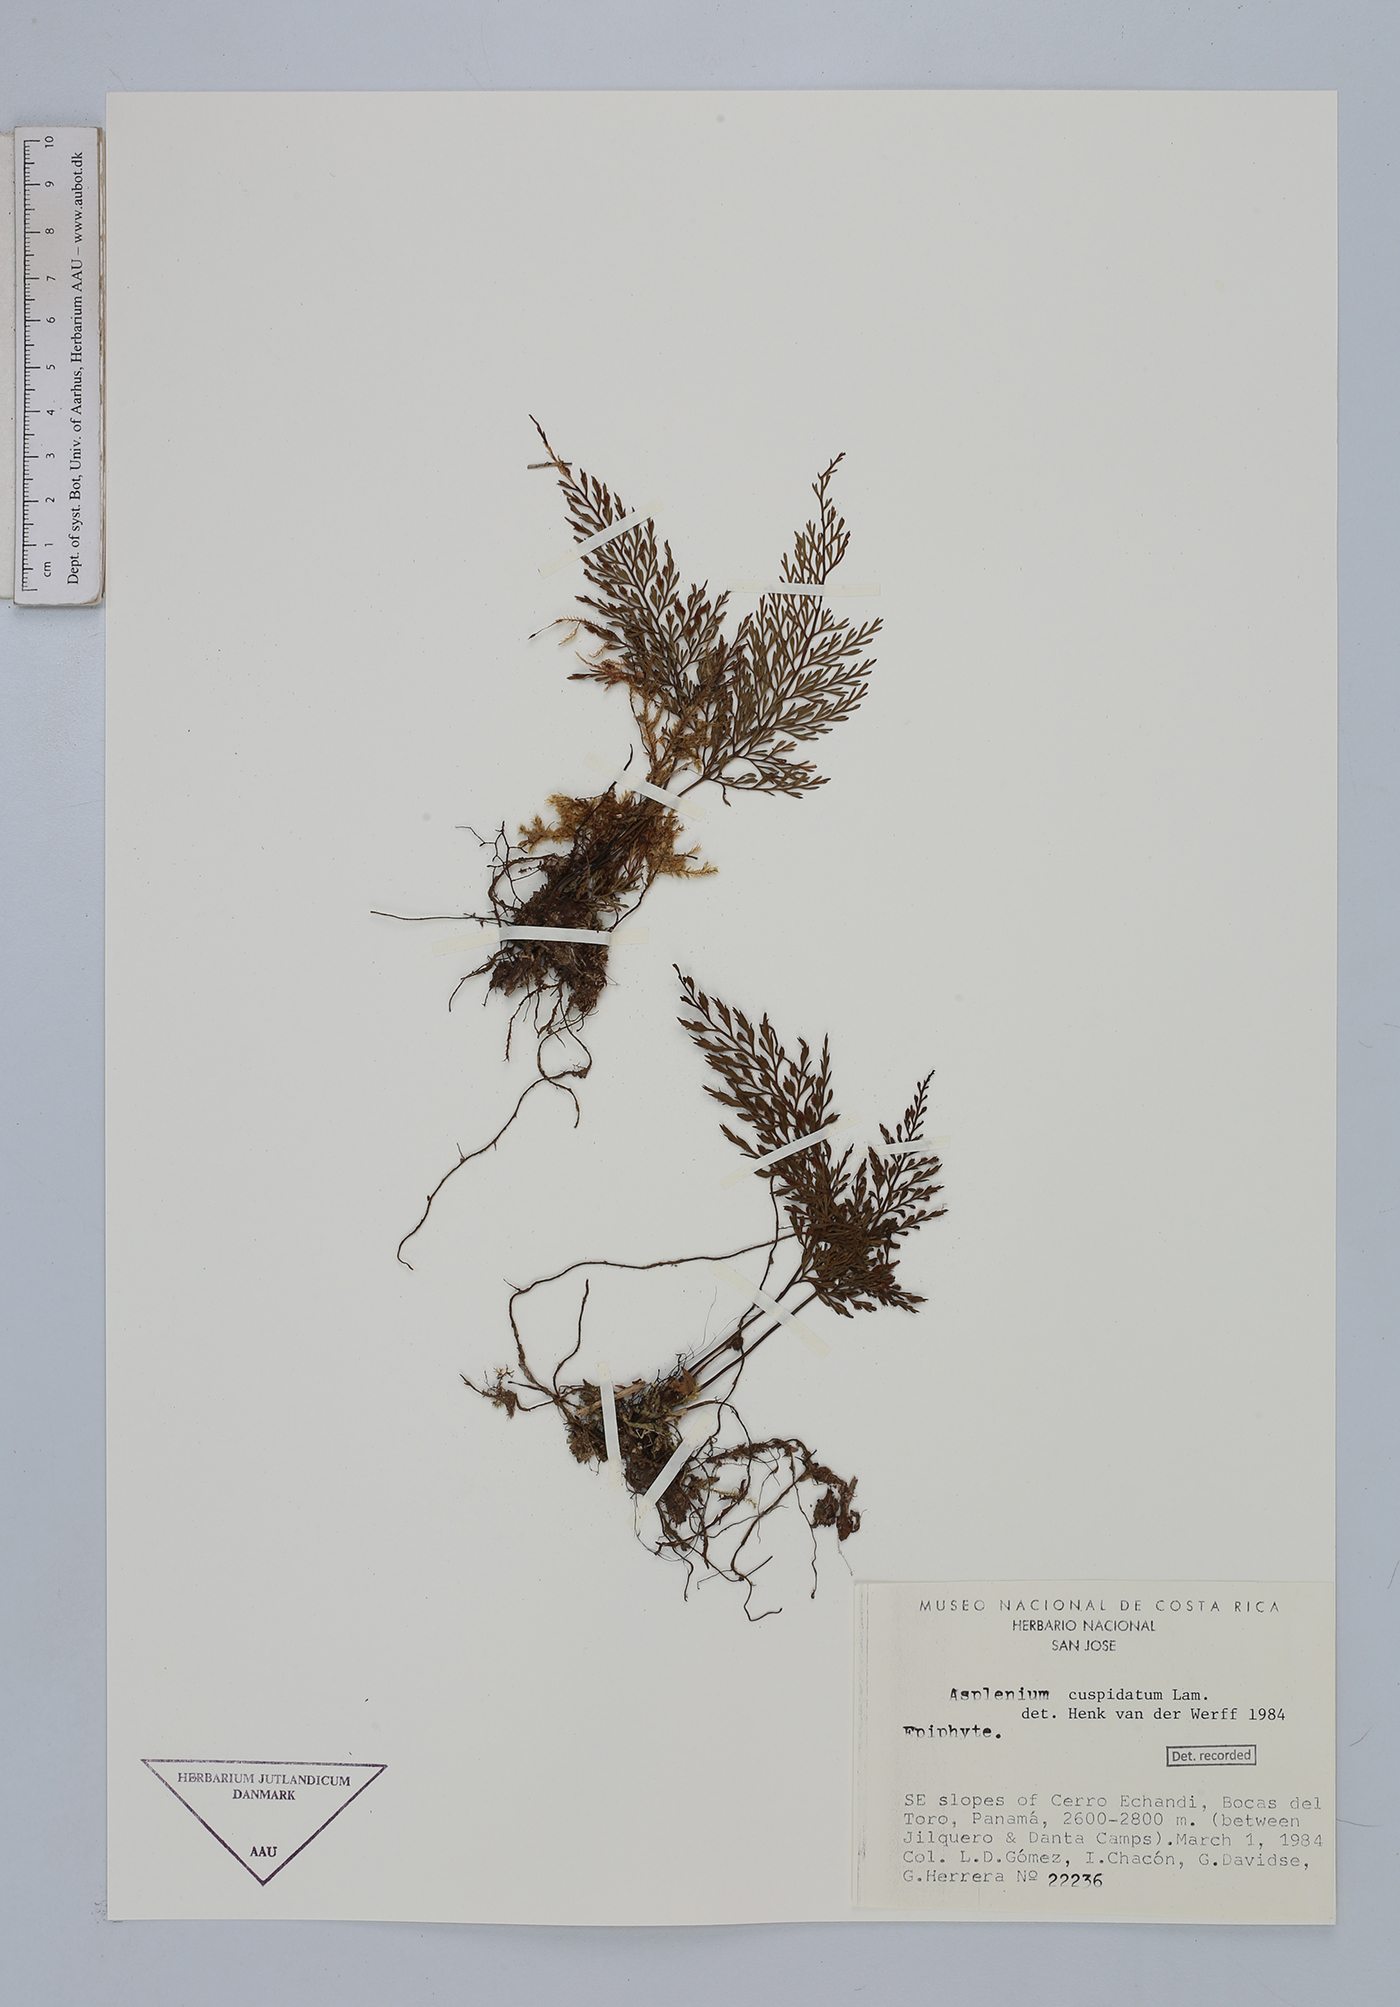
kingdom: Plantae
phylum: Tracheophyta
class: Polypodiopsida
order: Polypodiales
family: Aspleniaceae
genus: Asplenium
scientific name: Asplenium cuspidatum
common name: Eared spleenwort
